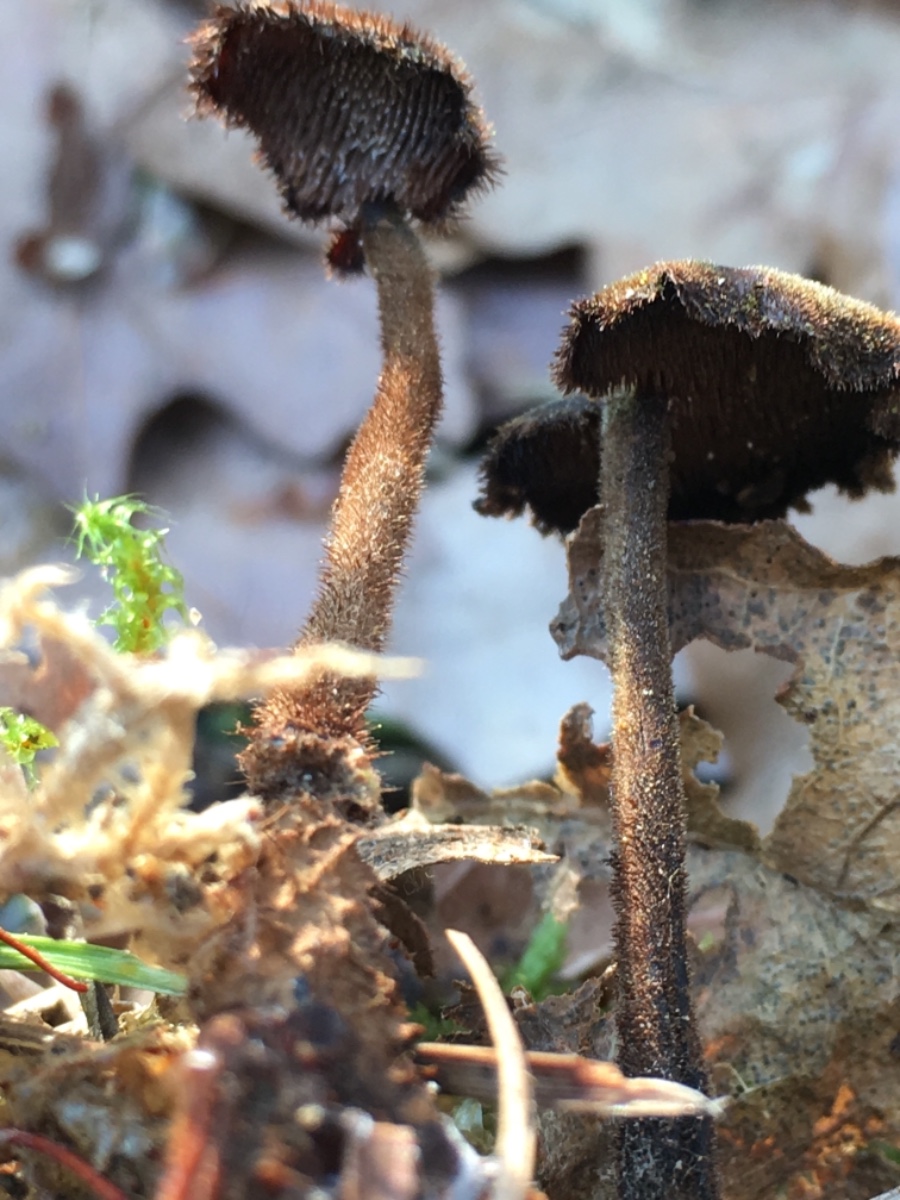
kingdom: Fungi
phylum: Basidiomycota
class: Agaricomycetes
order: Russulales
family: Auriscalpiaceae
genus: Auriscalpium
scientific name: Auriscalpium vulgare
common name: koglepigsvamp
